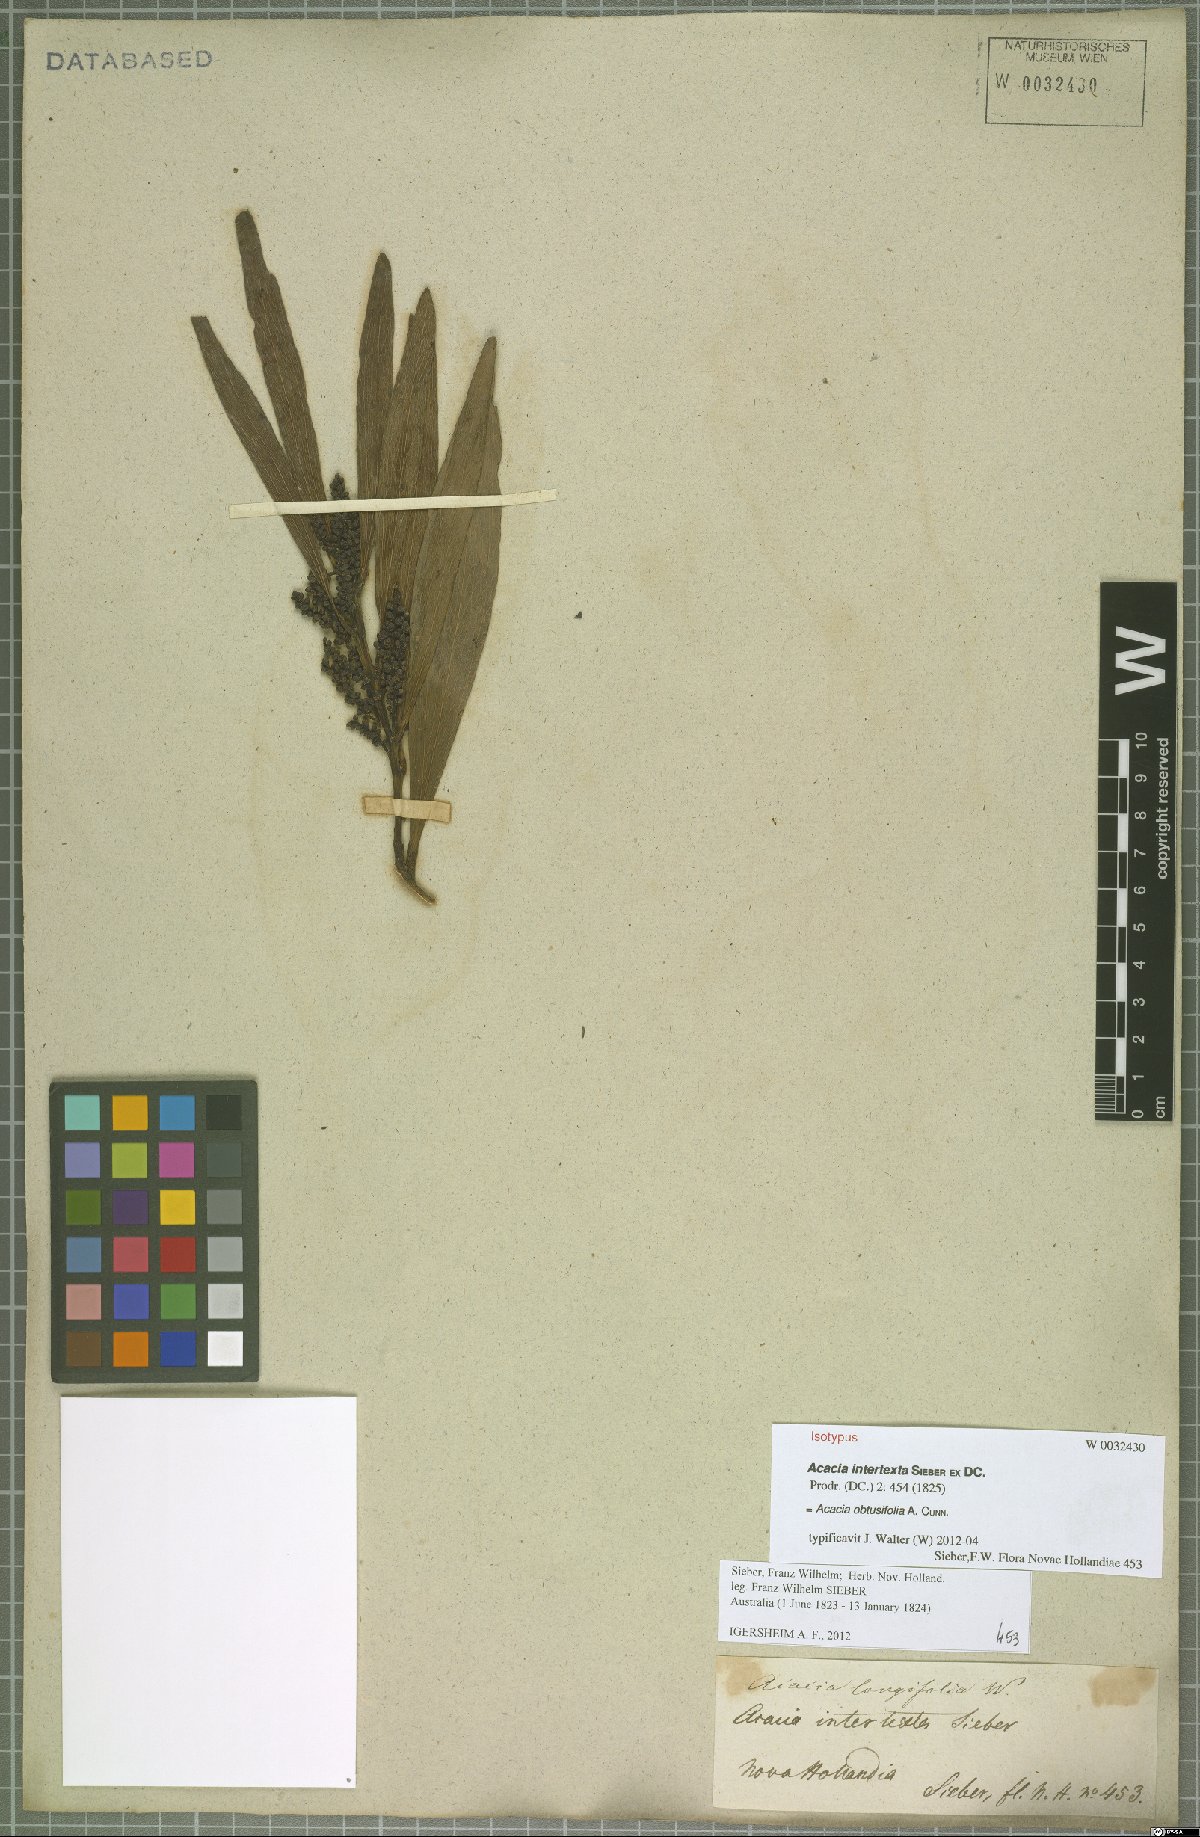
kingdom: Plantae
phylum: Tracheophyta
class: Magnoliopsida
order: Fabales
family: Fabaceae
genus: Acacia
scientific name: Acacia obtusifolia
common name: Stiff-leaf wattle
